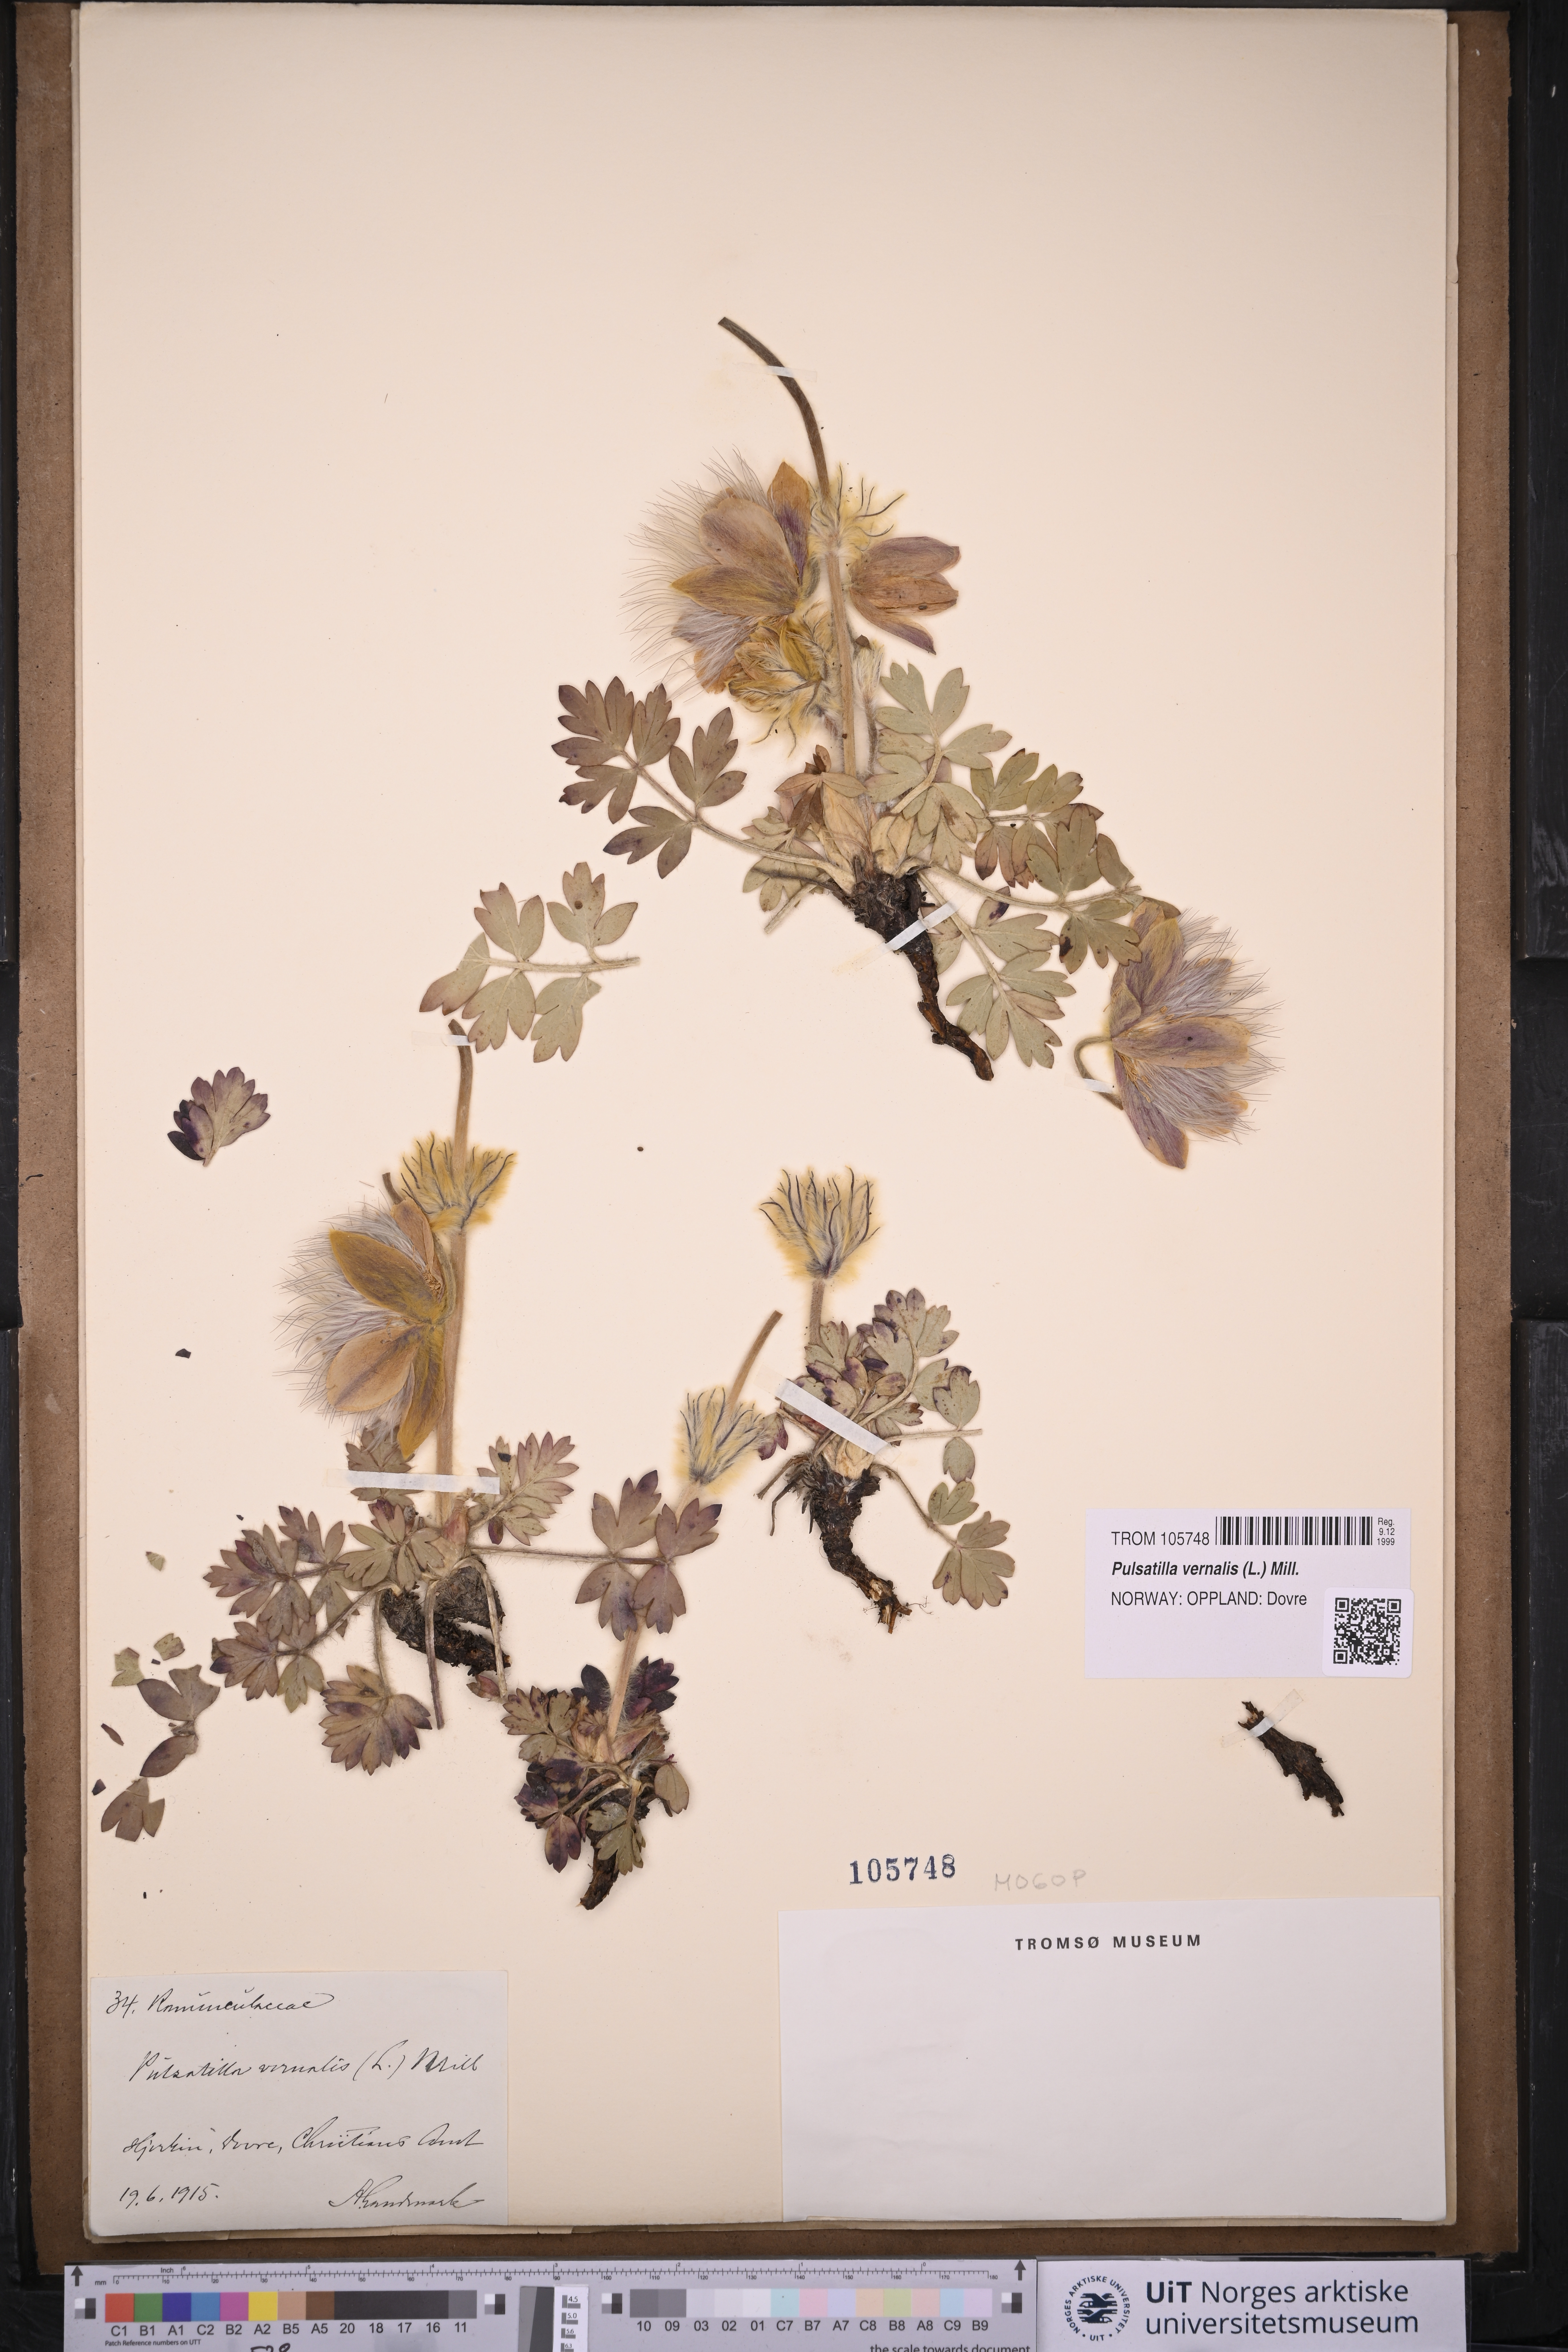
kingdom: Plantae
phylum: Tracheophyta
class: Magnoliopsida
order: Ranunculales
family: Ranunculaceae
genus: Pulsatilla
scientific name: Pulsatilla vernalis
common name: Spring pasque flower
